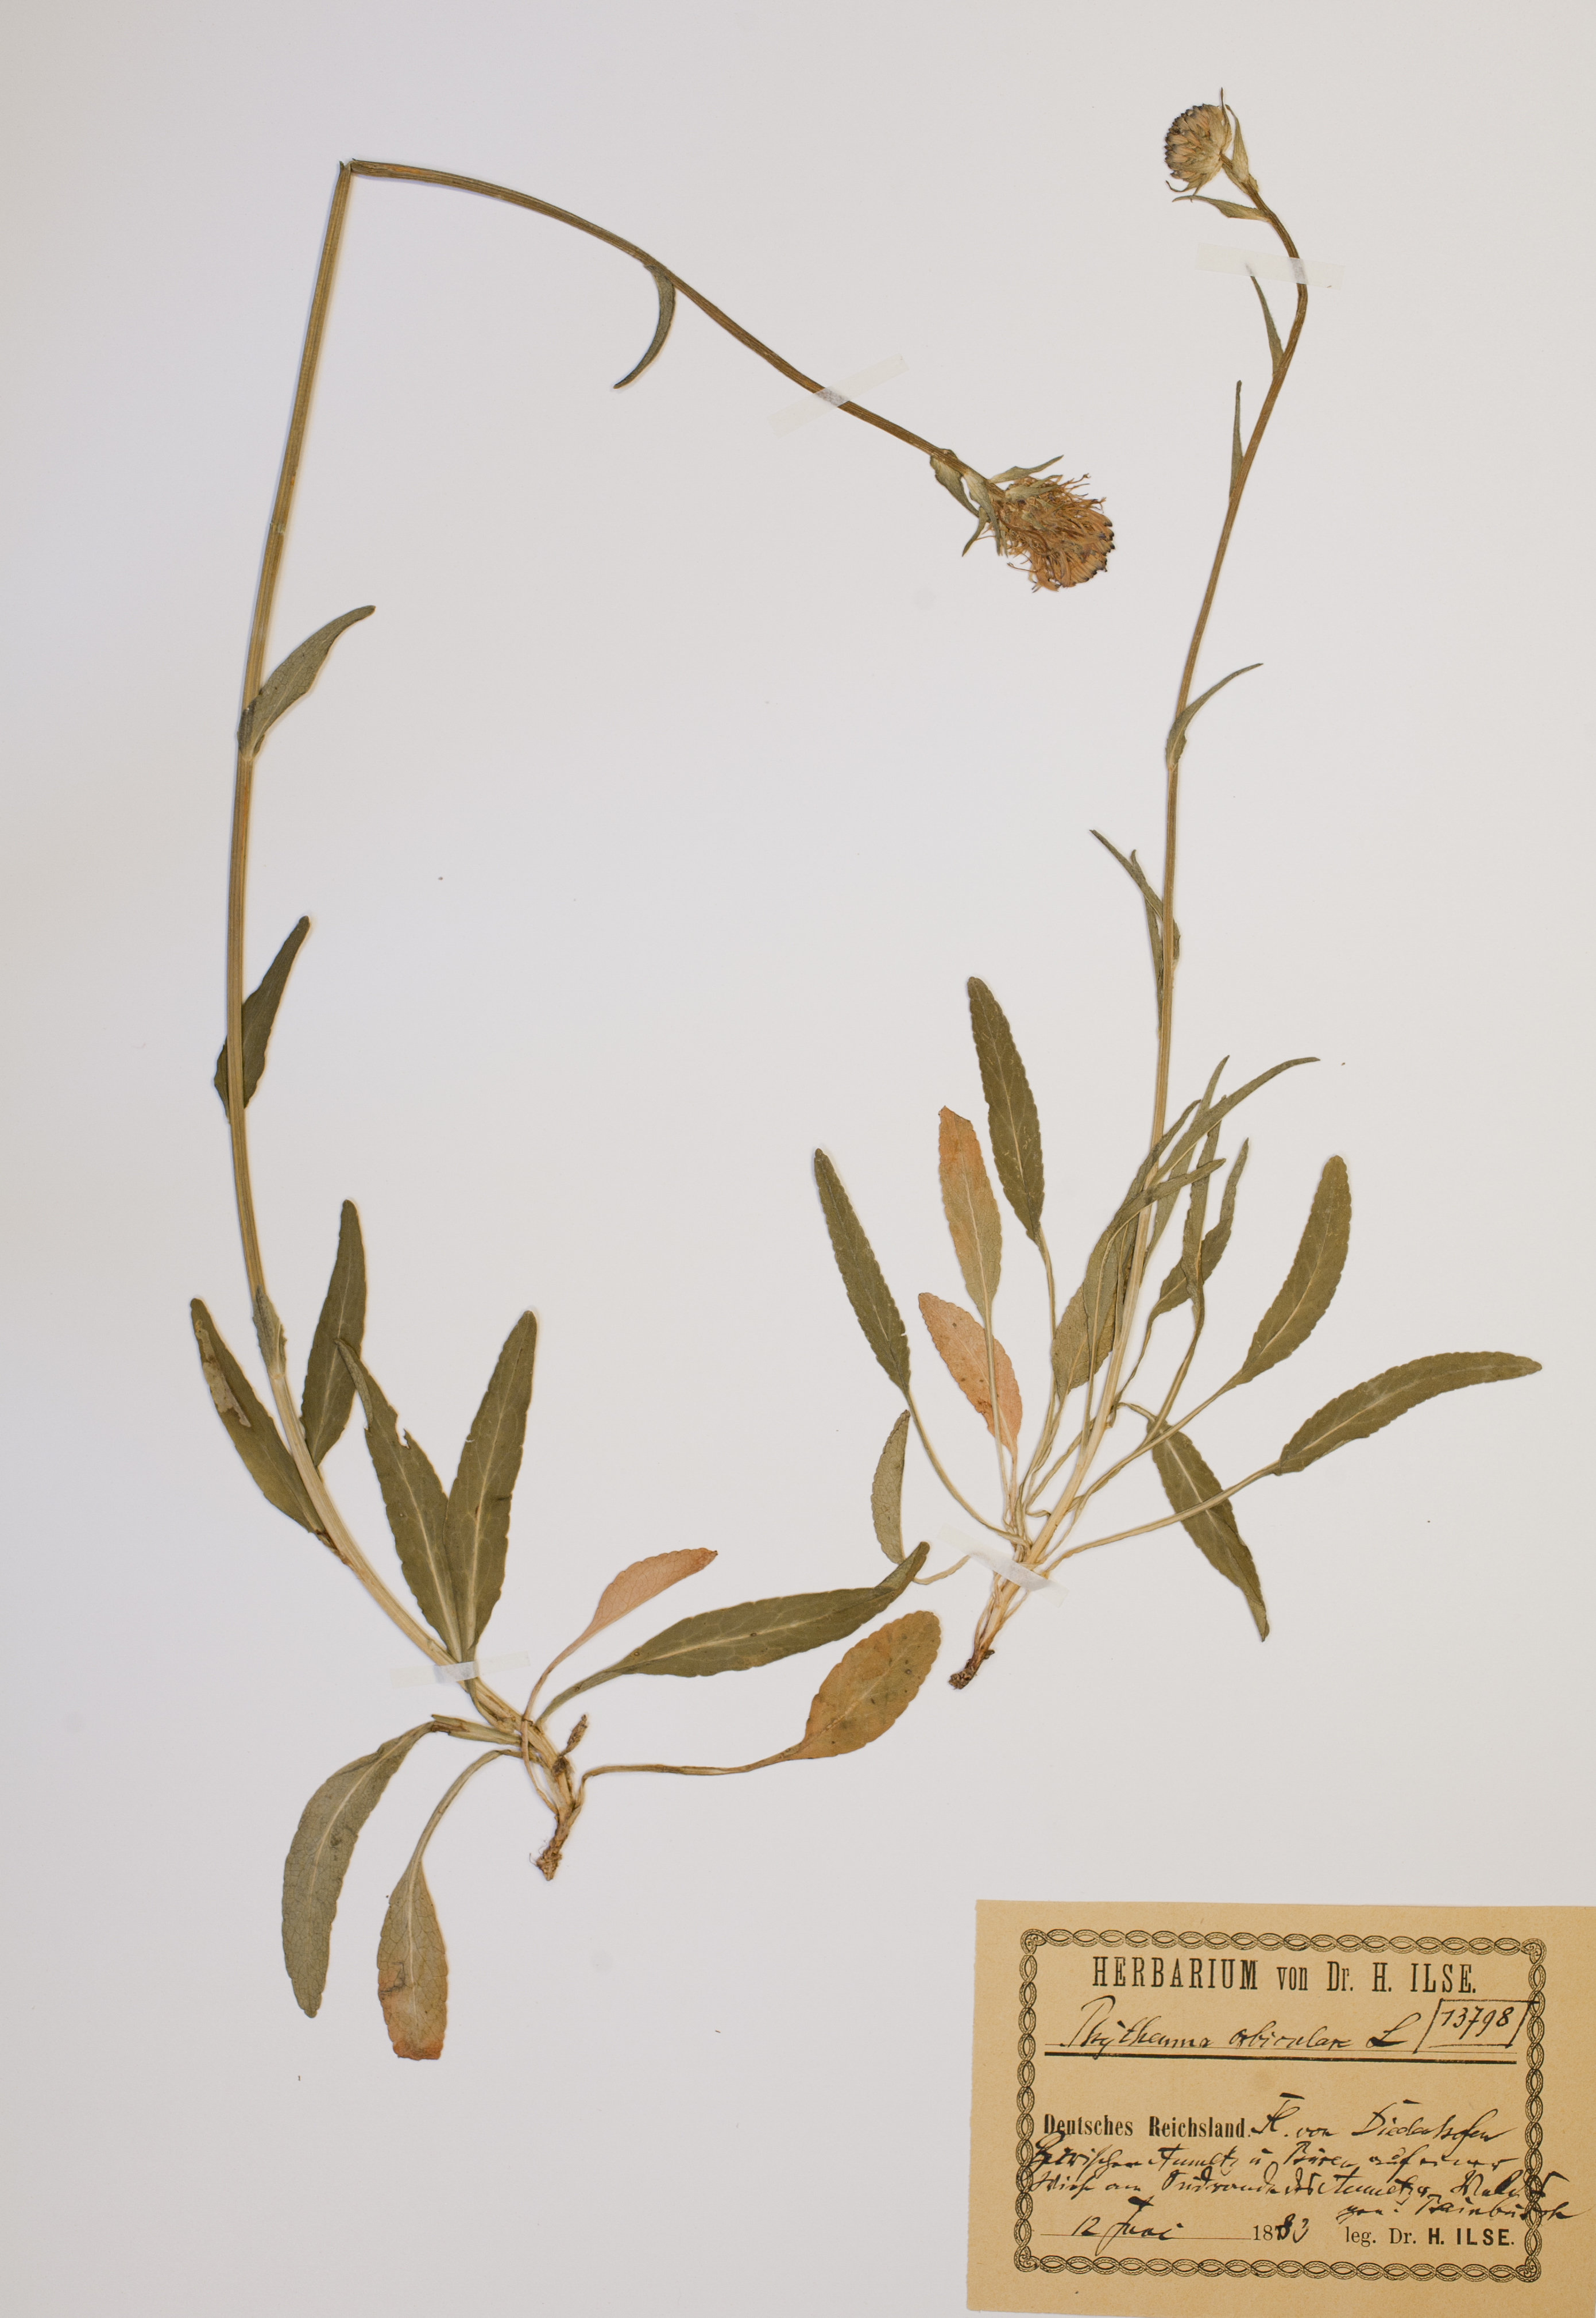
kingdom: Plantae
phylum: Tracheophyta
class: Magnoliopsida
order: Asterales
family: Campanulaceae
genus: Phyteuma
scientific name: Phyteuma orbiculare
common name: Round-headed rampion
